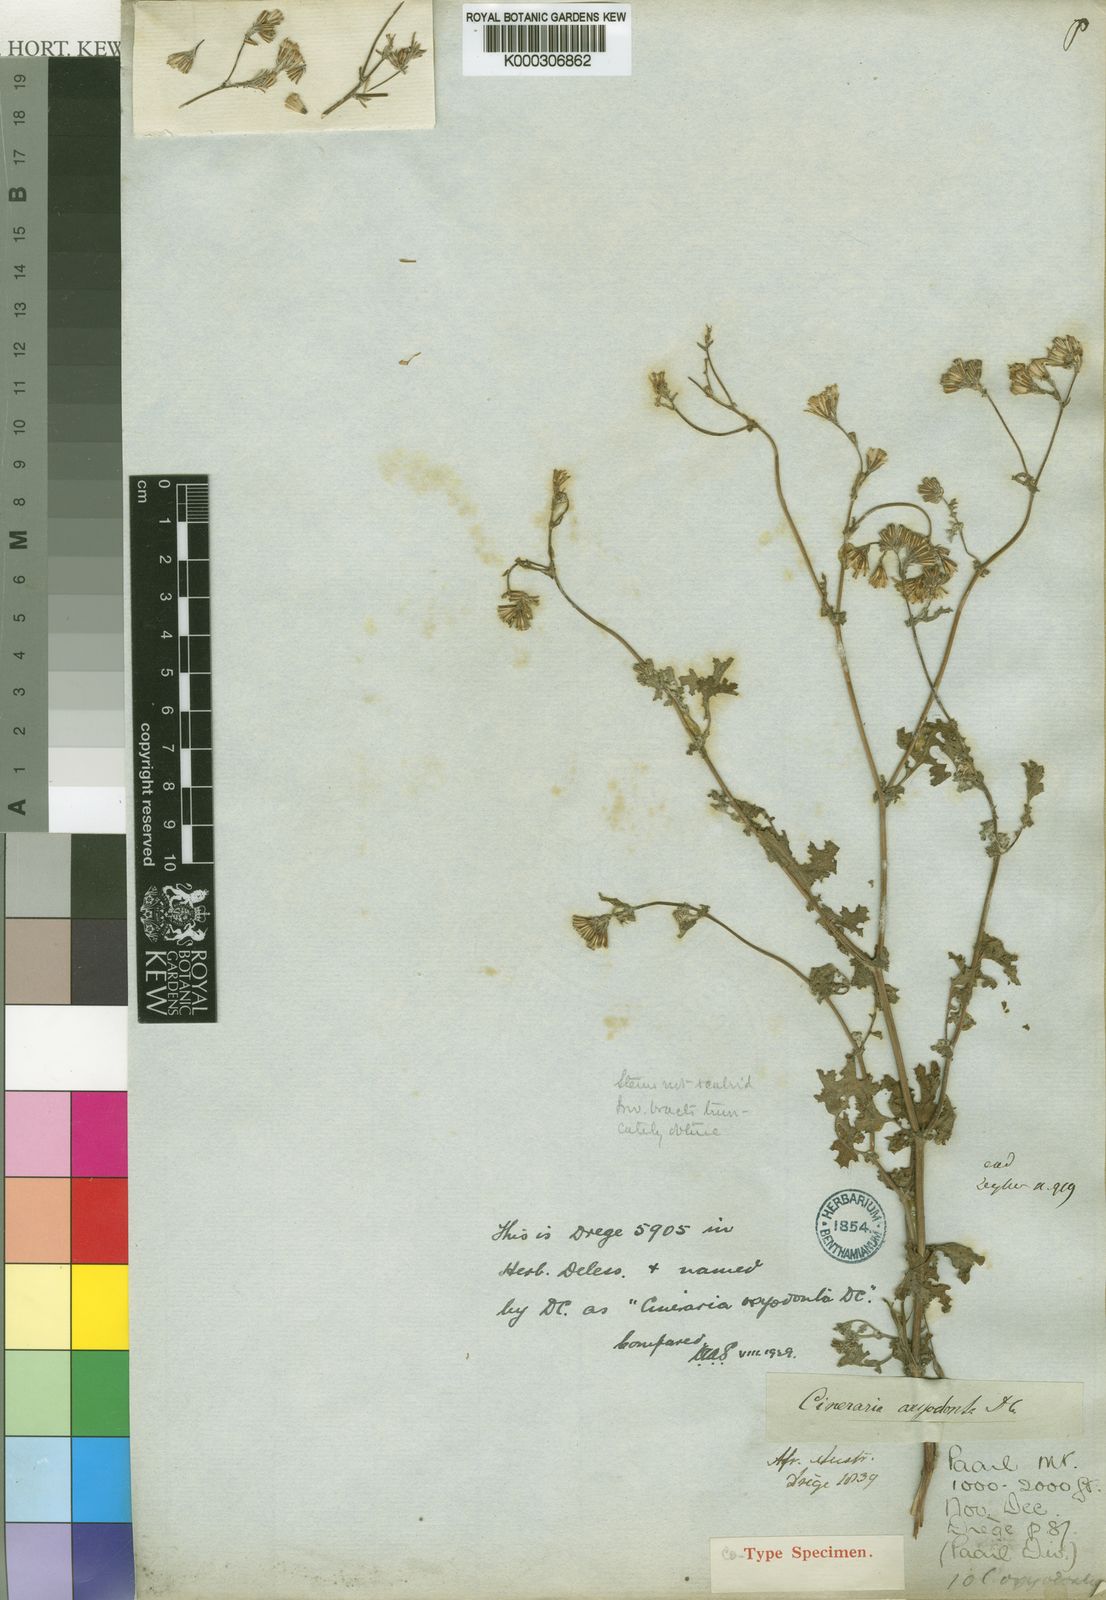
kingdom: Plantae
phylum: Tracheophyta
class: Magnoliopsida
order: Asterales
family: Asteraceae
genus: Cineraria
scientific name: Cineraria erosa
